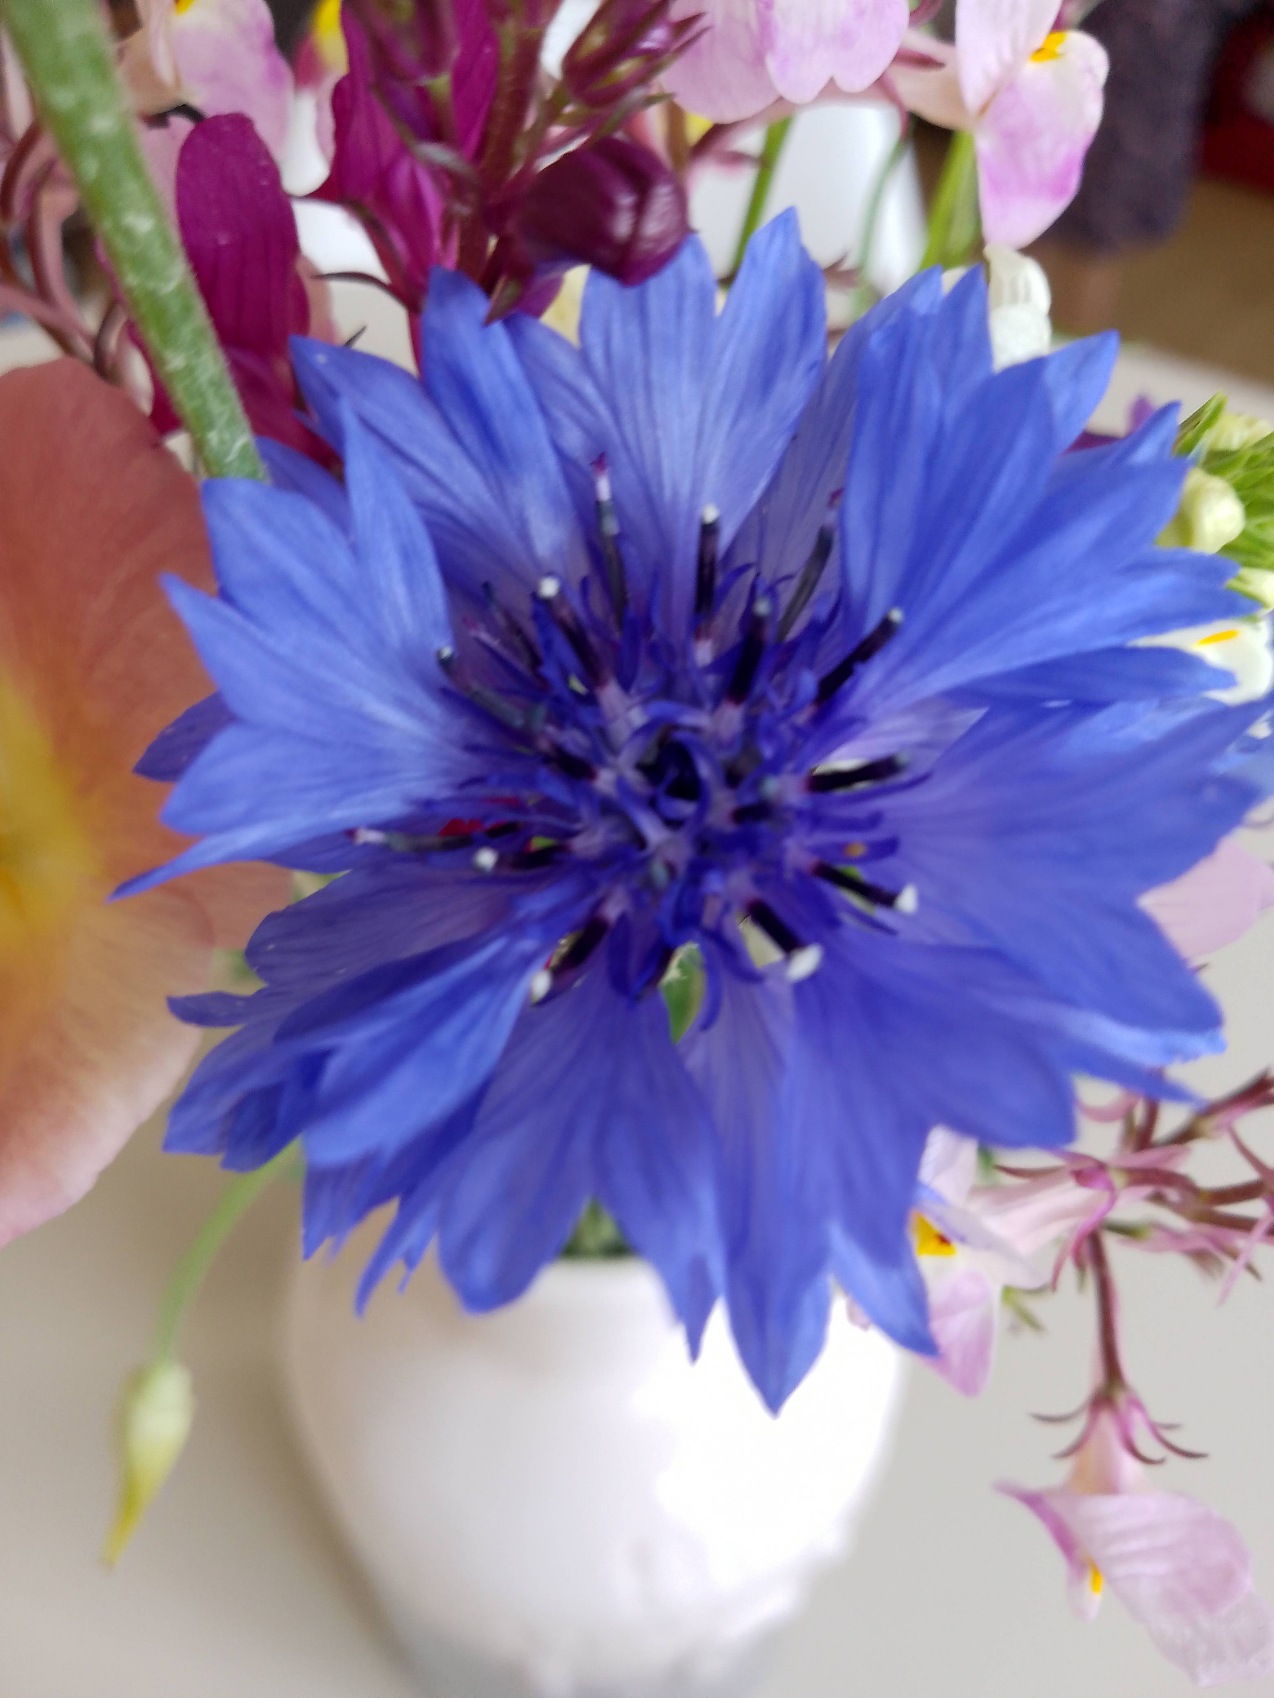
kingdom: Plantae
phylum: Tracheophyta
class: Magnoliopsida
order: Asterales
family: Asteraceae
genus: Centaurea
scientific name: Centaurea cyanus
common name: Kornblomst
